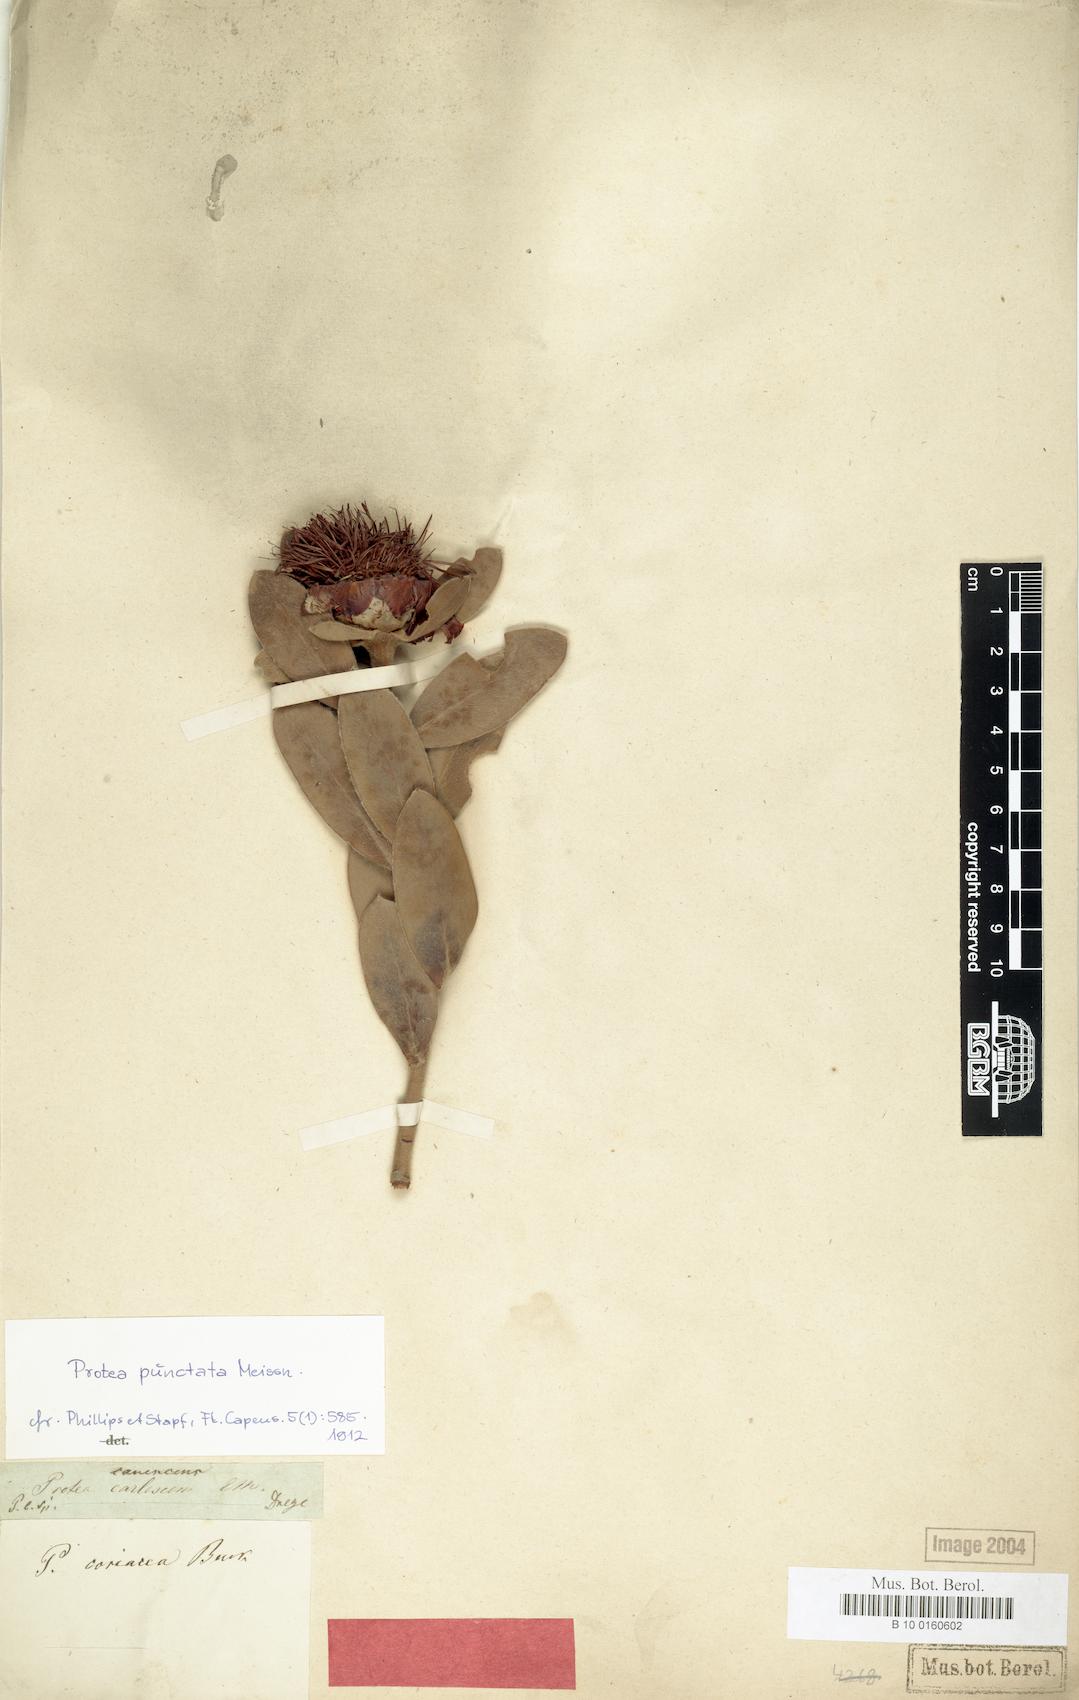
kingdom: Plantae
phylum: Tracheophyta
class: Magnoliopsida
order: Proteales
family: Proteaceae
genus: Protea
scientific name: Protea punctata
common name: Water sugarbush
